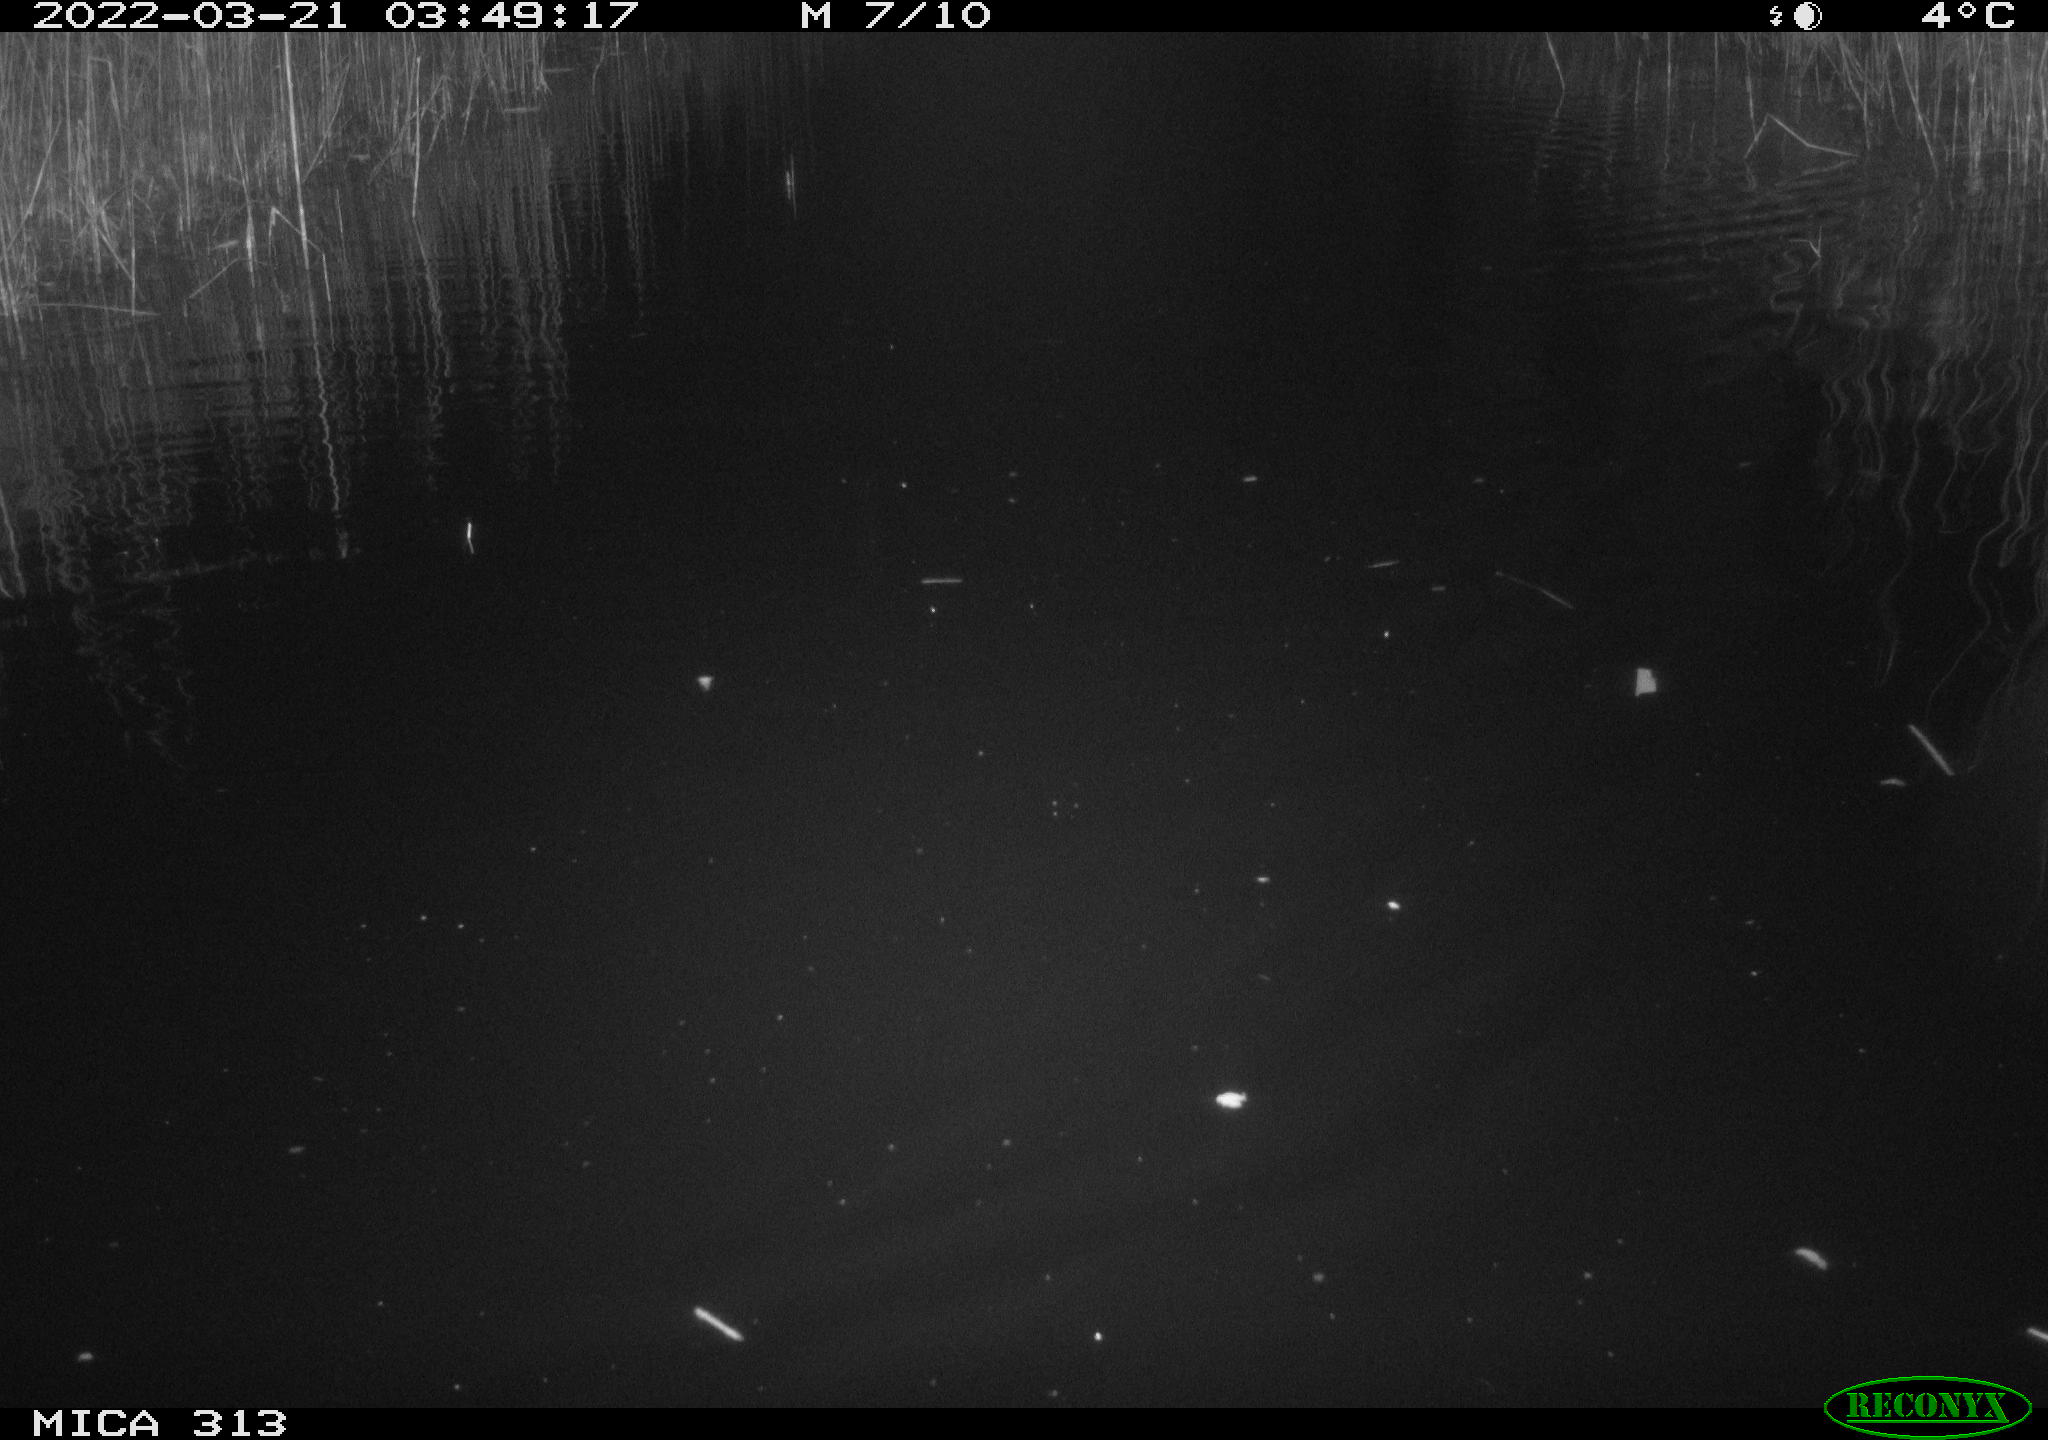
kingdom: Animalia
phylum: Chordata
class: Mammalia
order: Rodentia
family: Cricetidae
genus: Ondatra
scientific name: Ondatra zibethicus
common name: Muskrat
